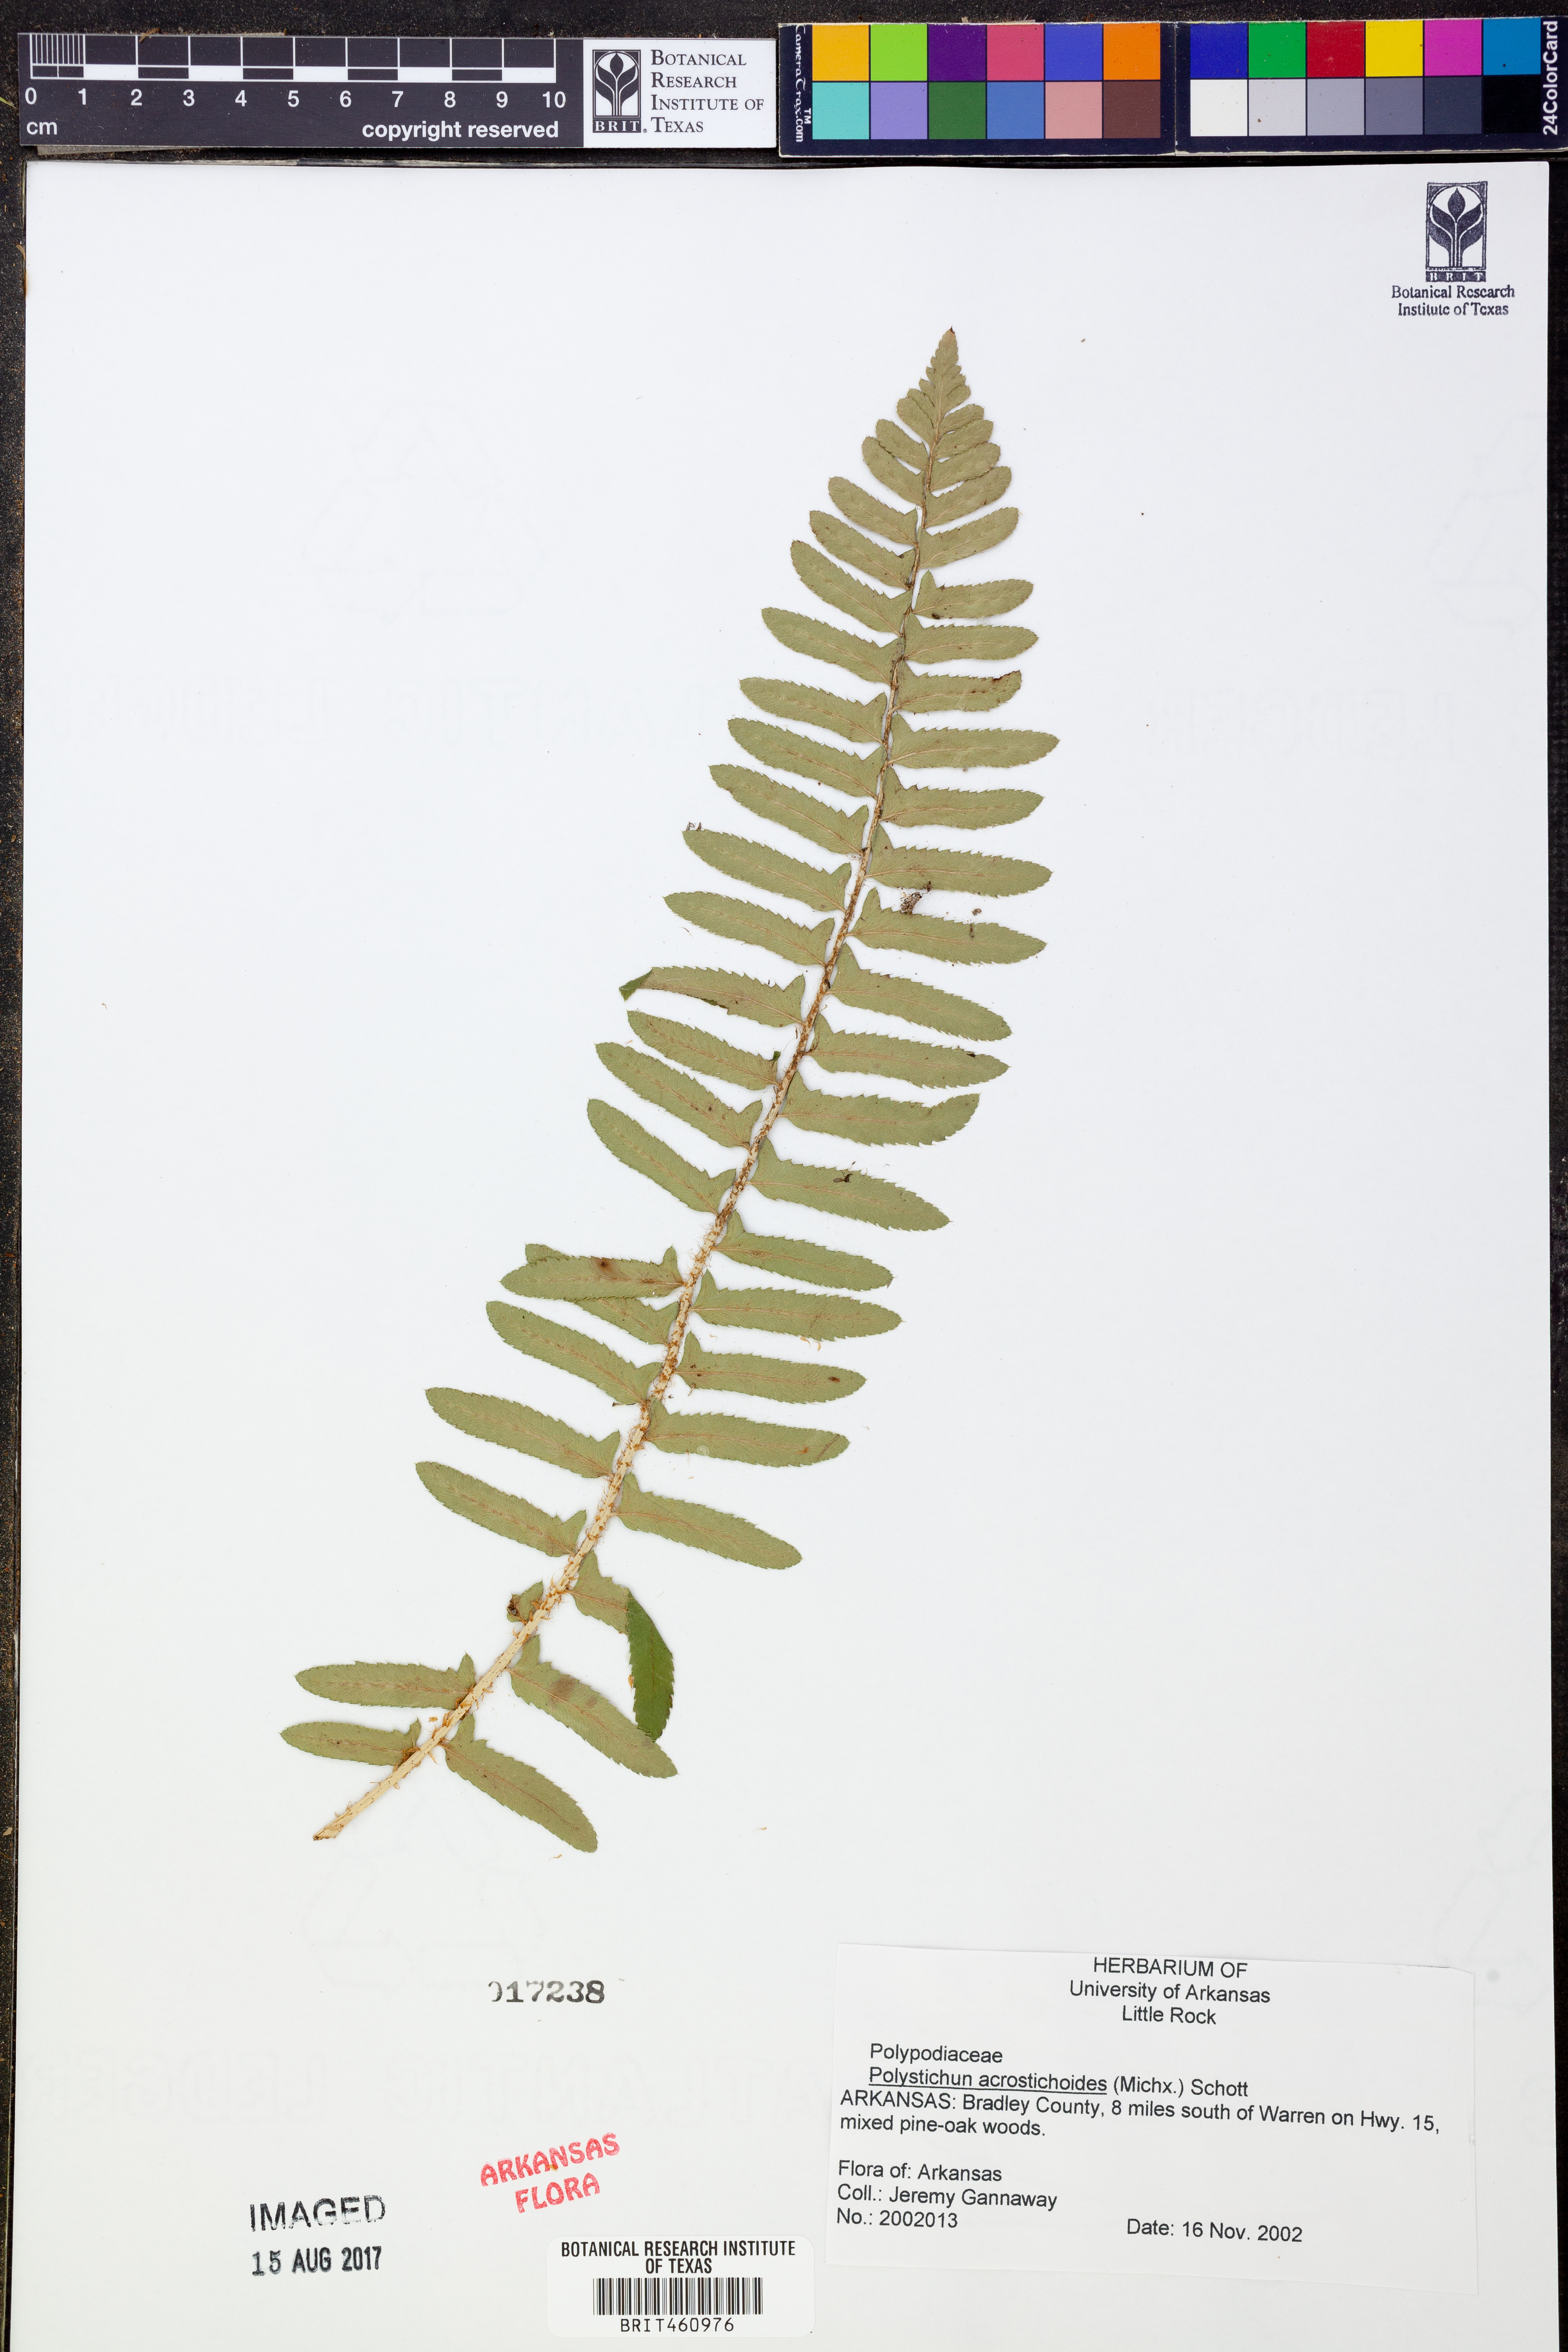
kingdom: Plantae
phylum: Tracheophyta
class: Polypodiopsida
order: Polypodiales
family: Dryopteridaceae
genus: Polystichum
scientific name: Polystichum acrostichoides
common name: Christmas fern
